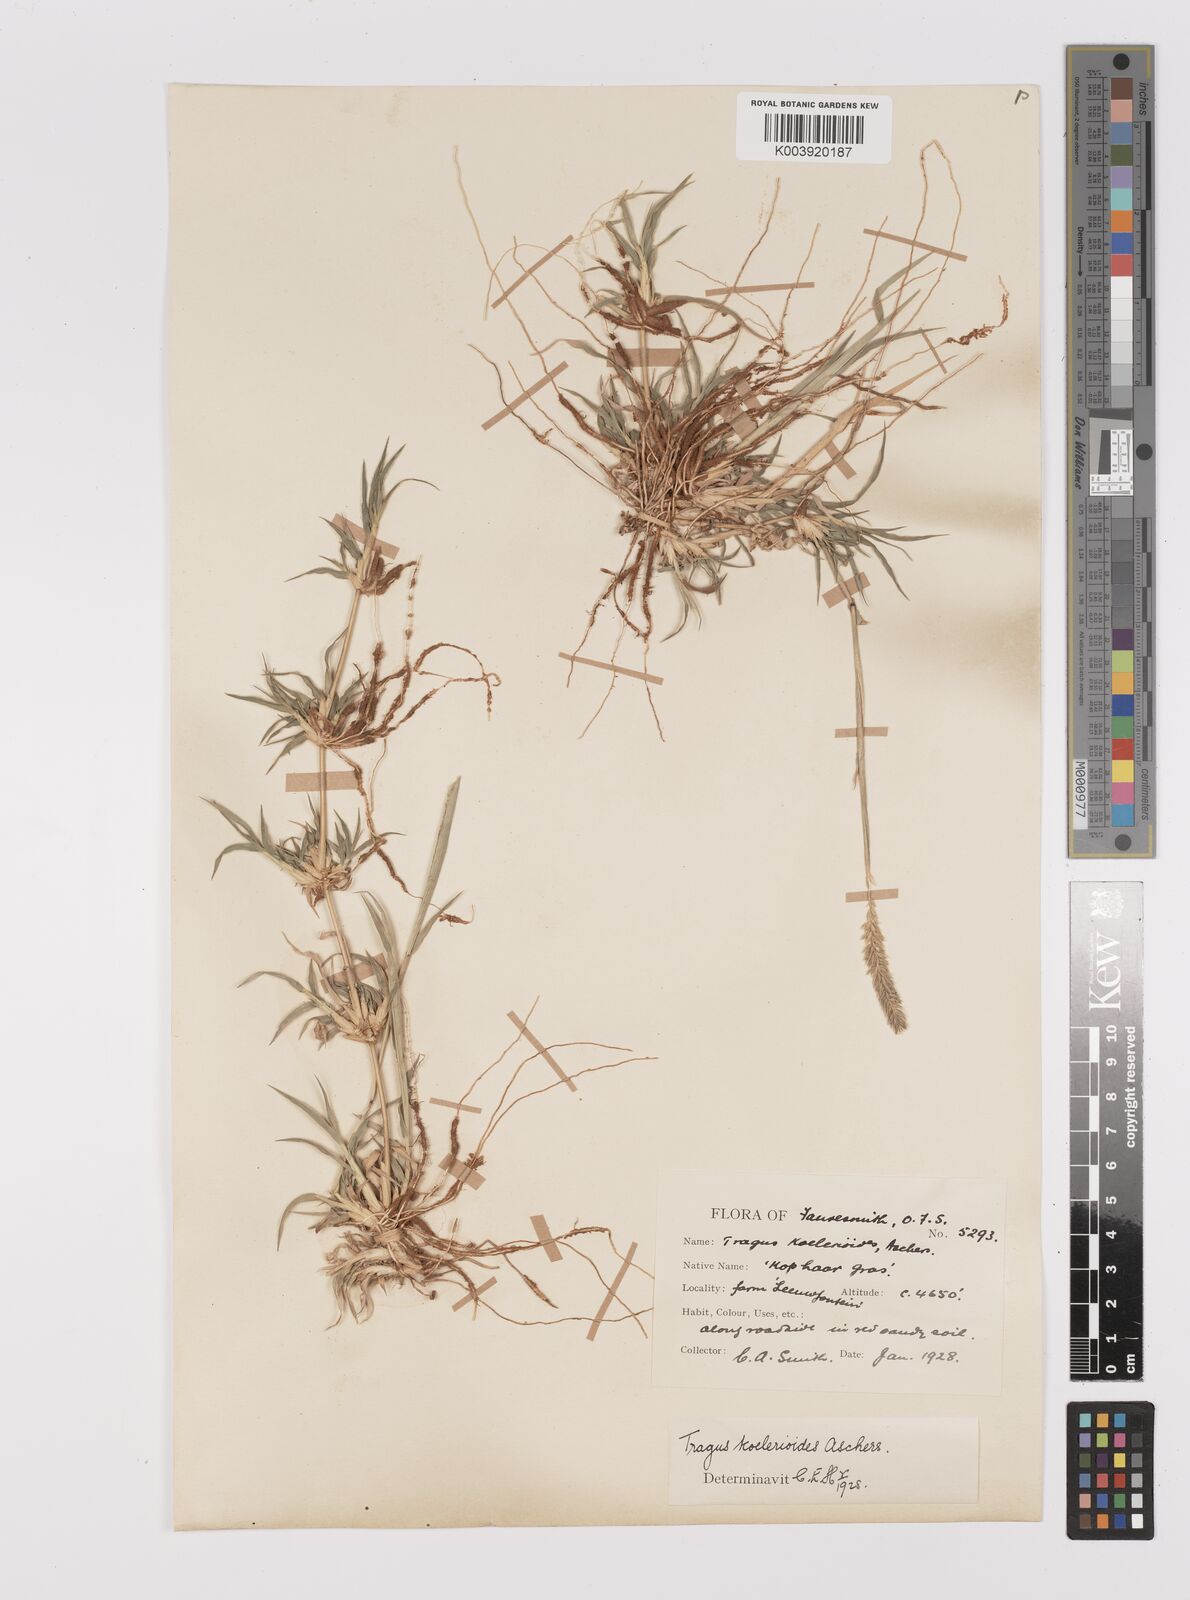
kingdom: Plantae
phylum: Tracheophyta
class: Liliopsida
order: Poales
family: Poaceae
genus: Tragus
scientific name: Tragus koelerioides
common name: Creeping carrot-seed grass
